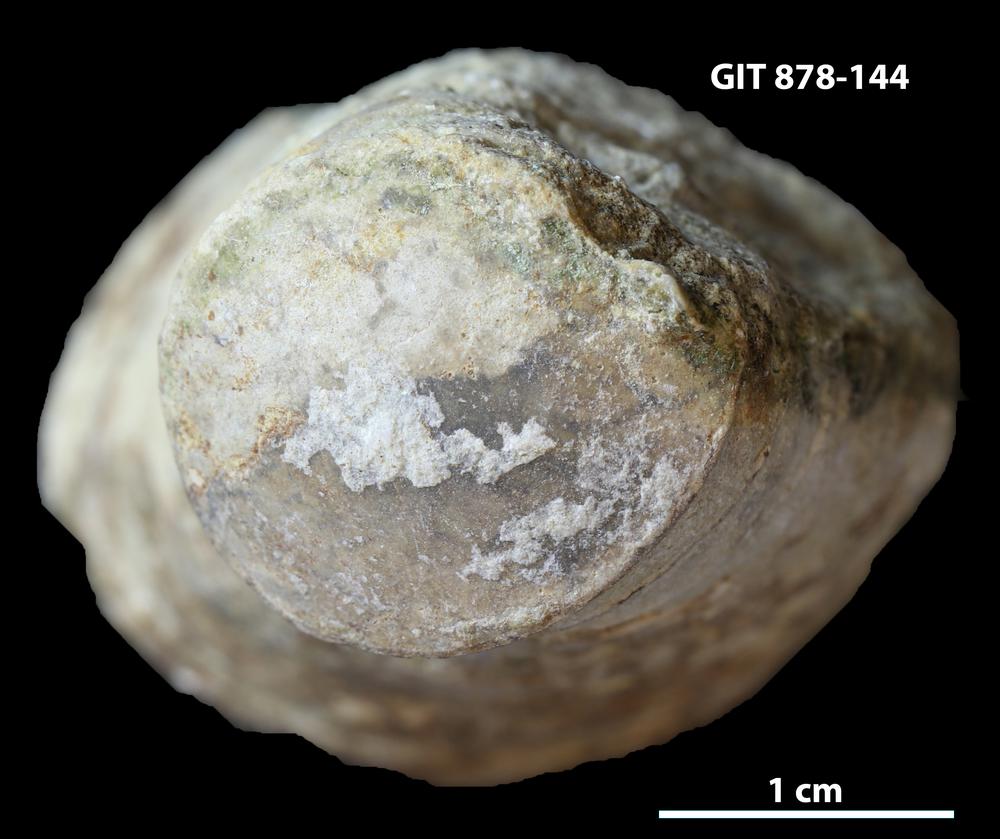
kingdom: Animalia
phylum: Mollusca
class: Cephalopoda
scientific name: Cephalopoda
